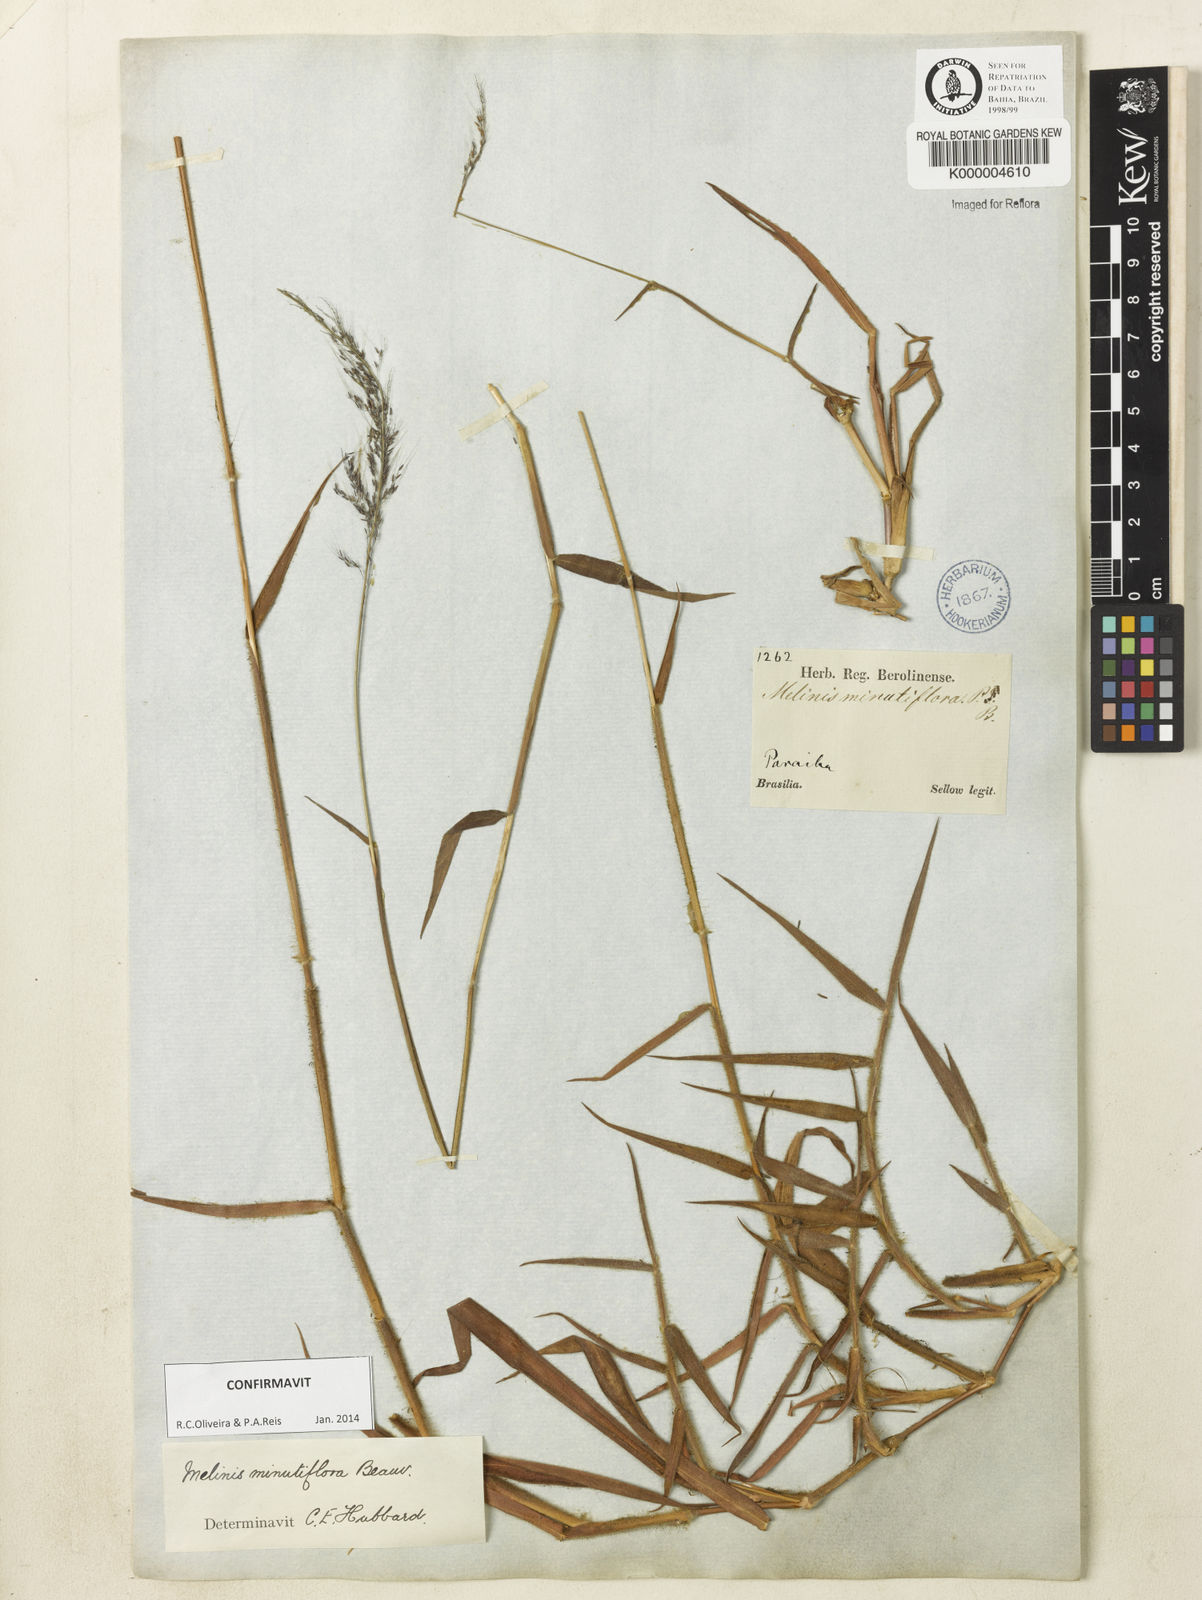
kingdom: Plantae
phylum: Tracheophyta
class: Liliopsida
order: Poales
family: Poaceae
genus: Melinis
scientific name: Melinis minutiflora
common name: Molassesgrass
